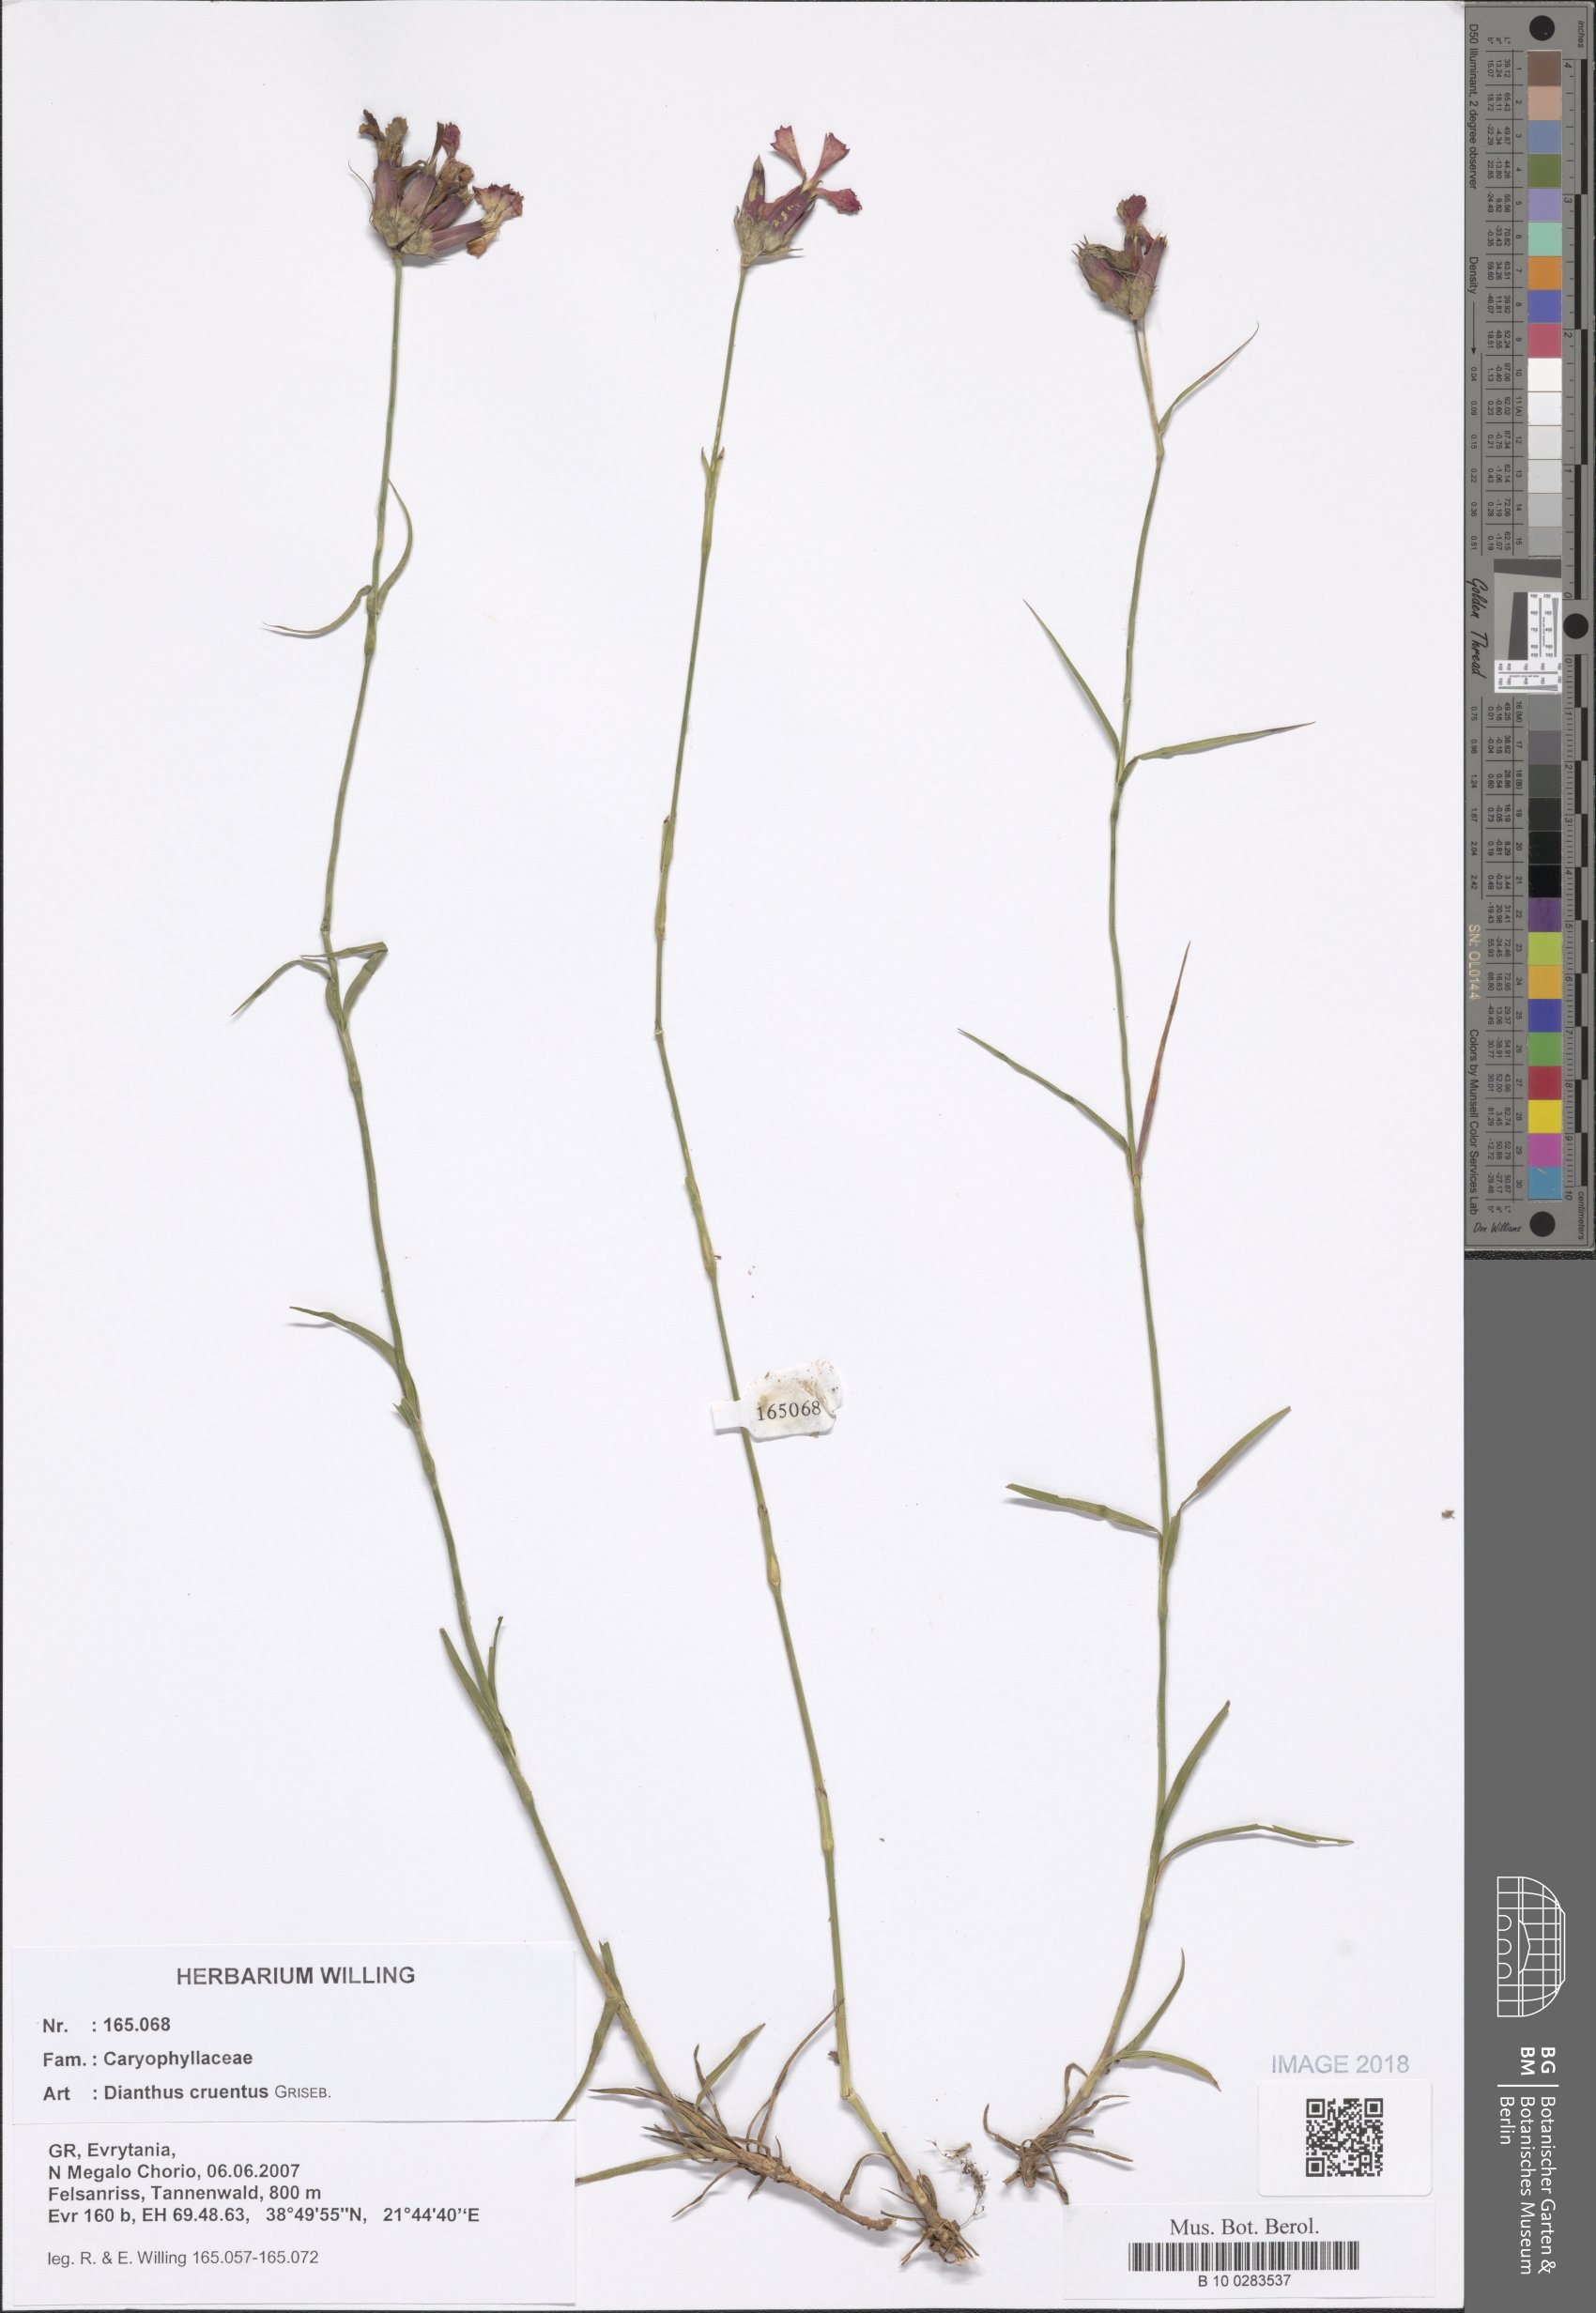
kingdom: Plantae
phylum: Tracheophyta
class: Magnoliopsida
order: Caryophyllales
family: Caryophyllaceae
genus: Dianthus
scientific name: Dianthus cruentus
